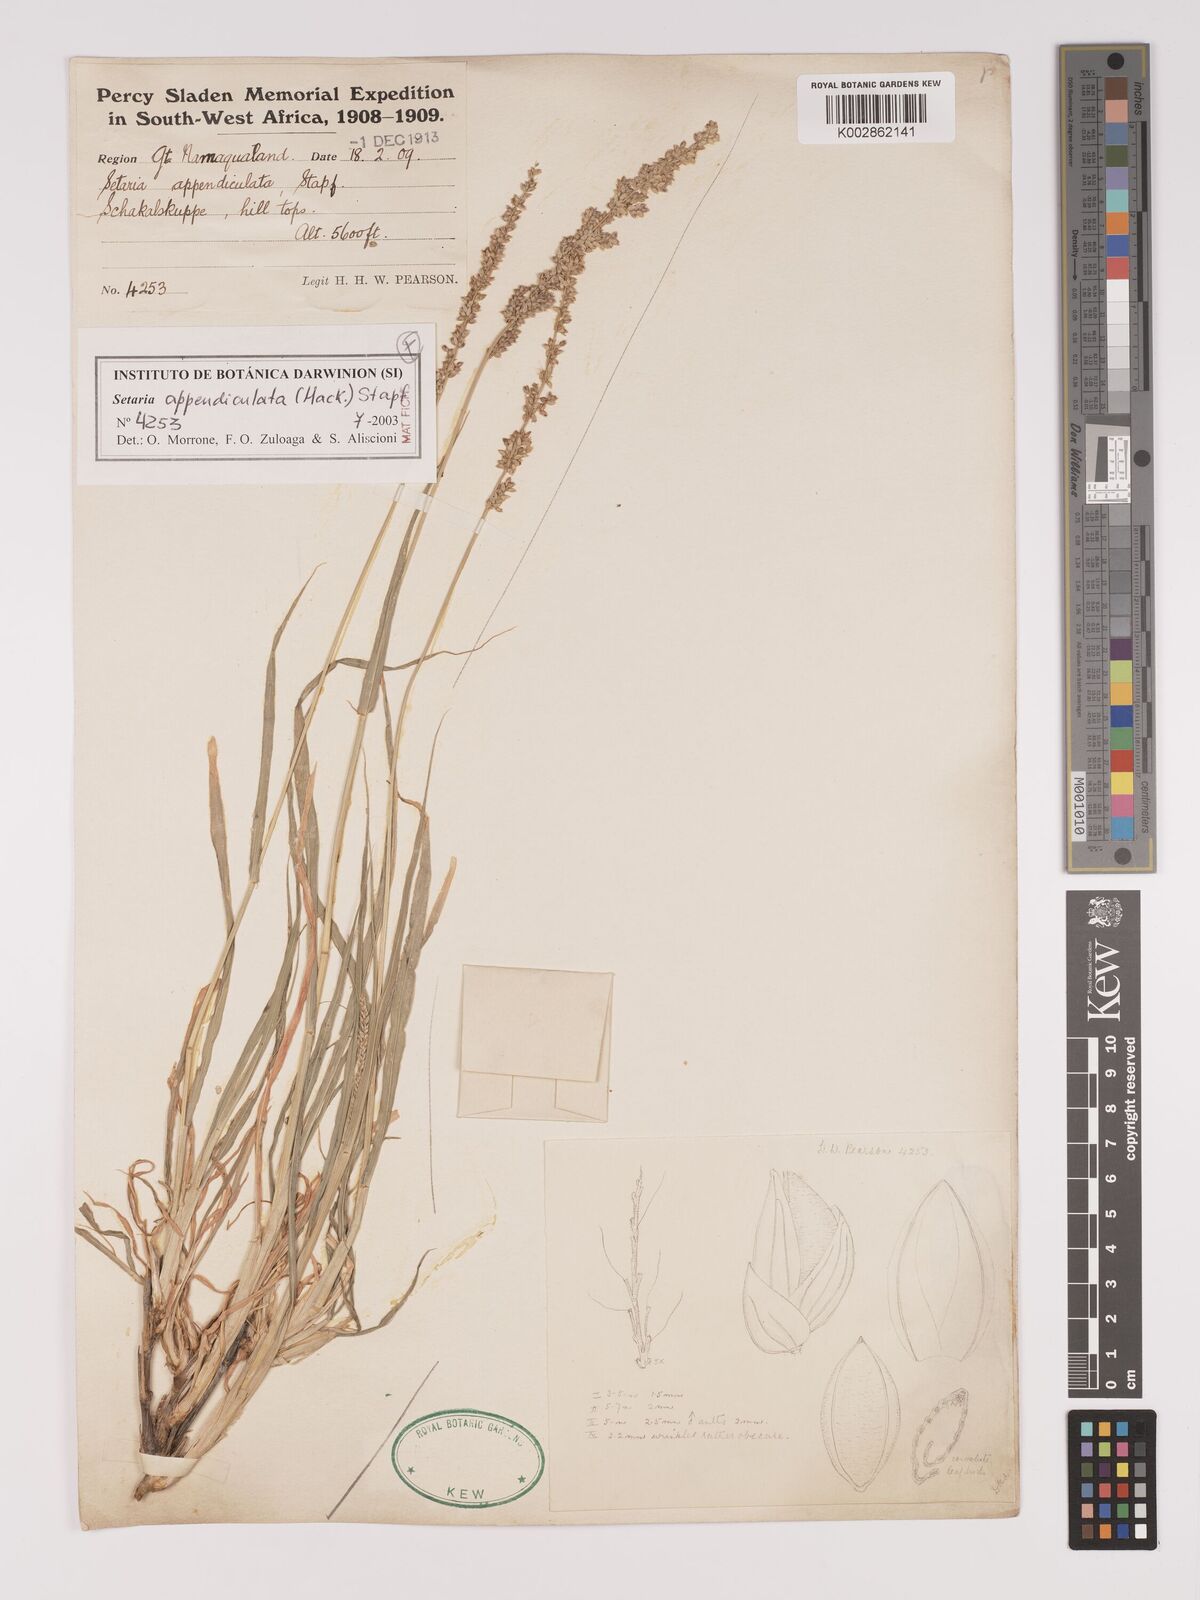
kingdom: Plantae
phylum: Tracheophyta
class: Liliopsida
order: Poales
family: Poaceae
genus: Setaria
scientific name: Setaria appendiculata
